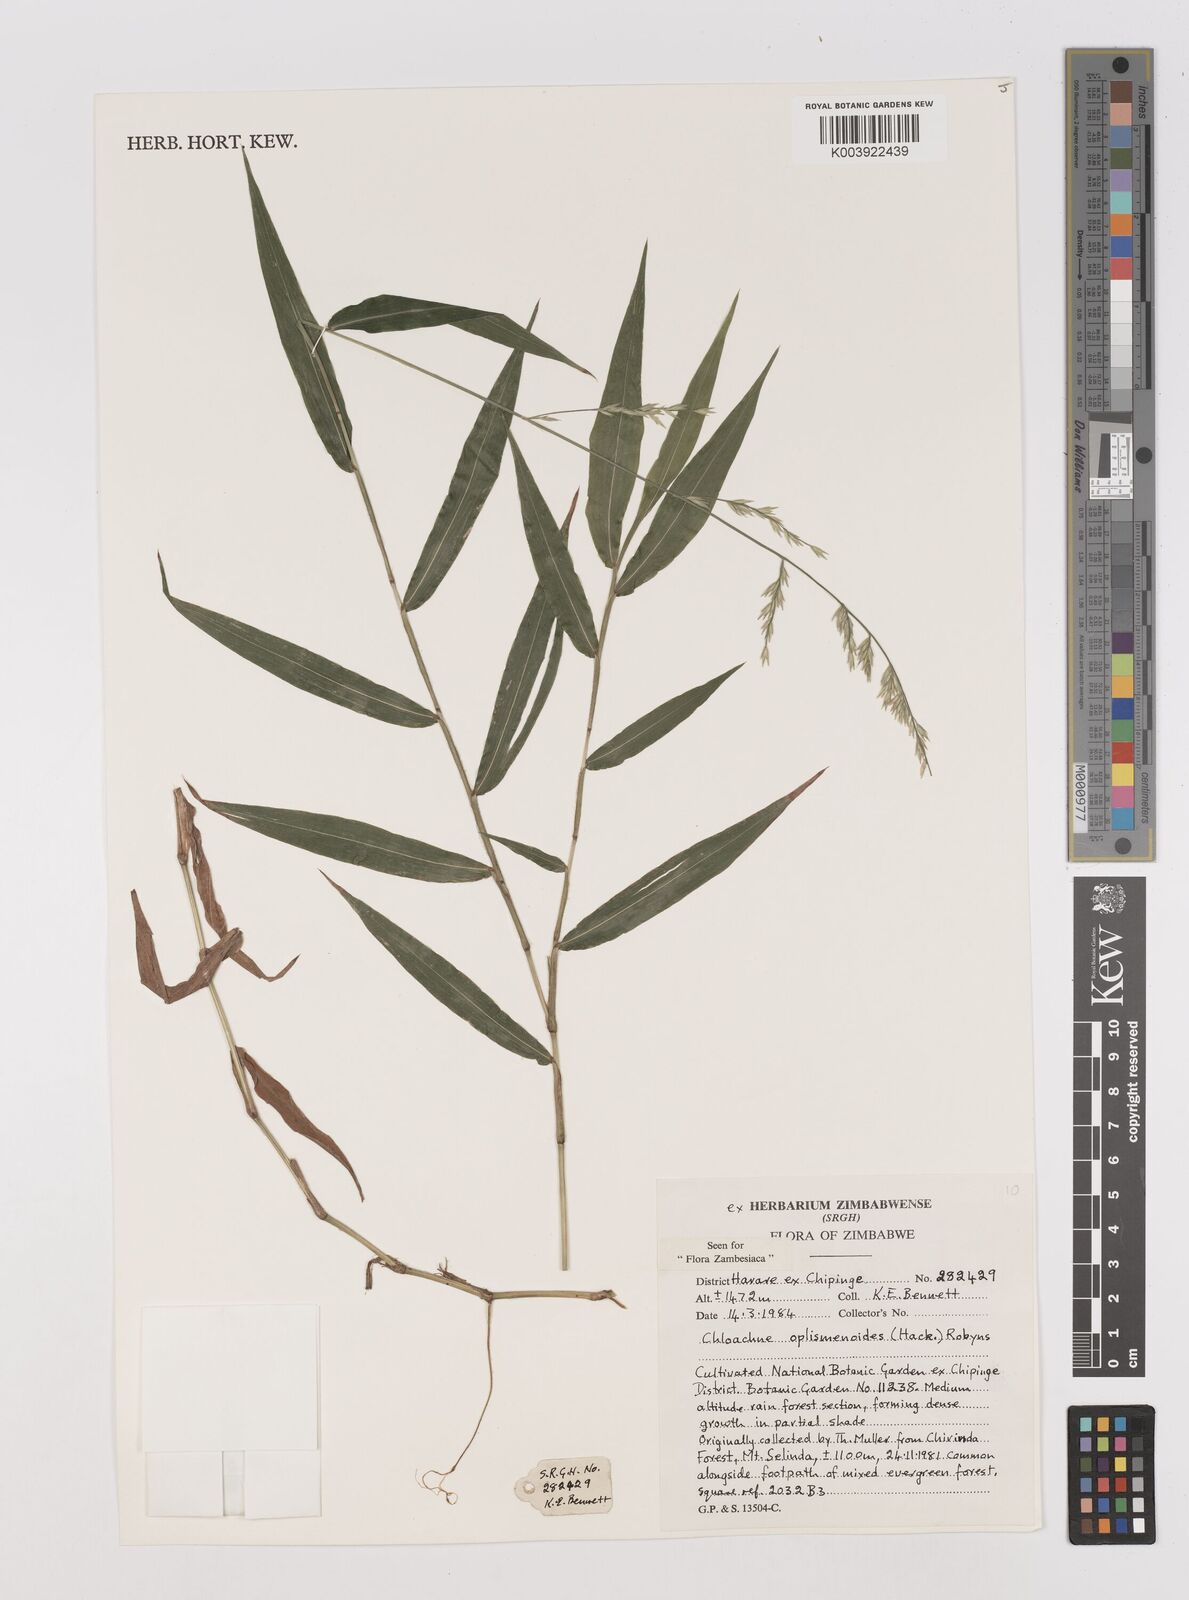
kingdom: Plantae
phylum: Tracheophyta
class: Liliopsida
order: Poales
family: Poaceae
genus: Poecilostachys
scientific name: Poecilostachys oplismenoides
